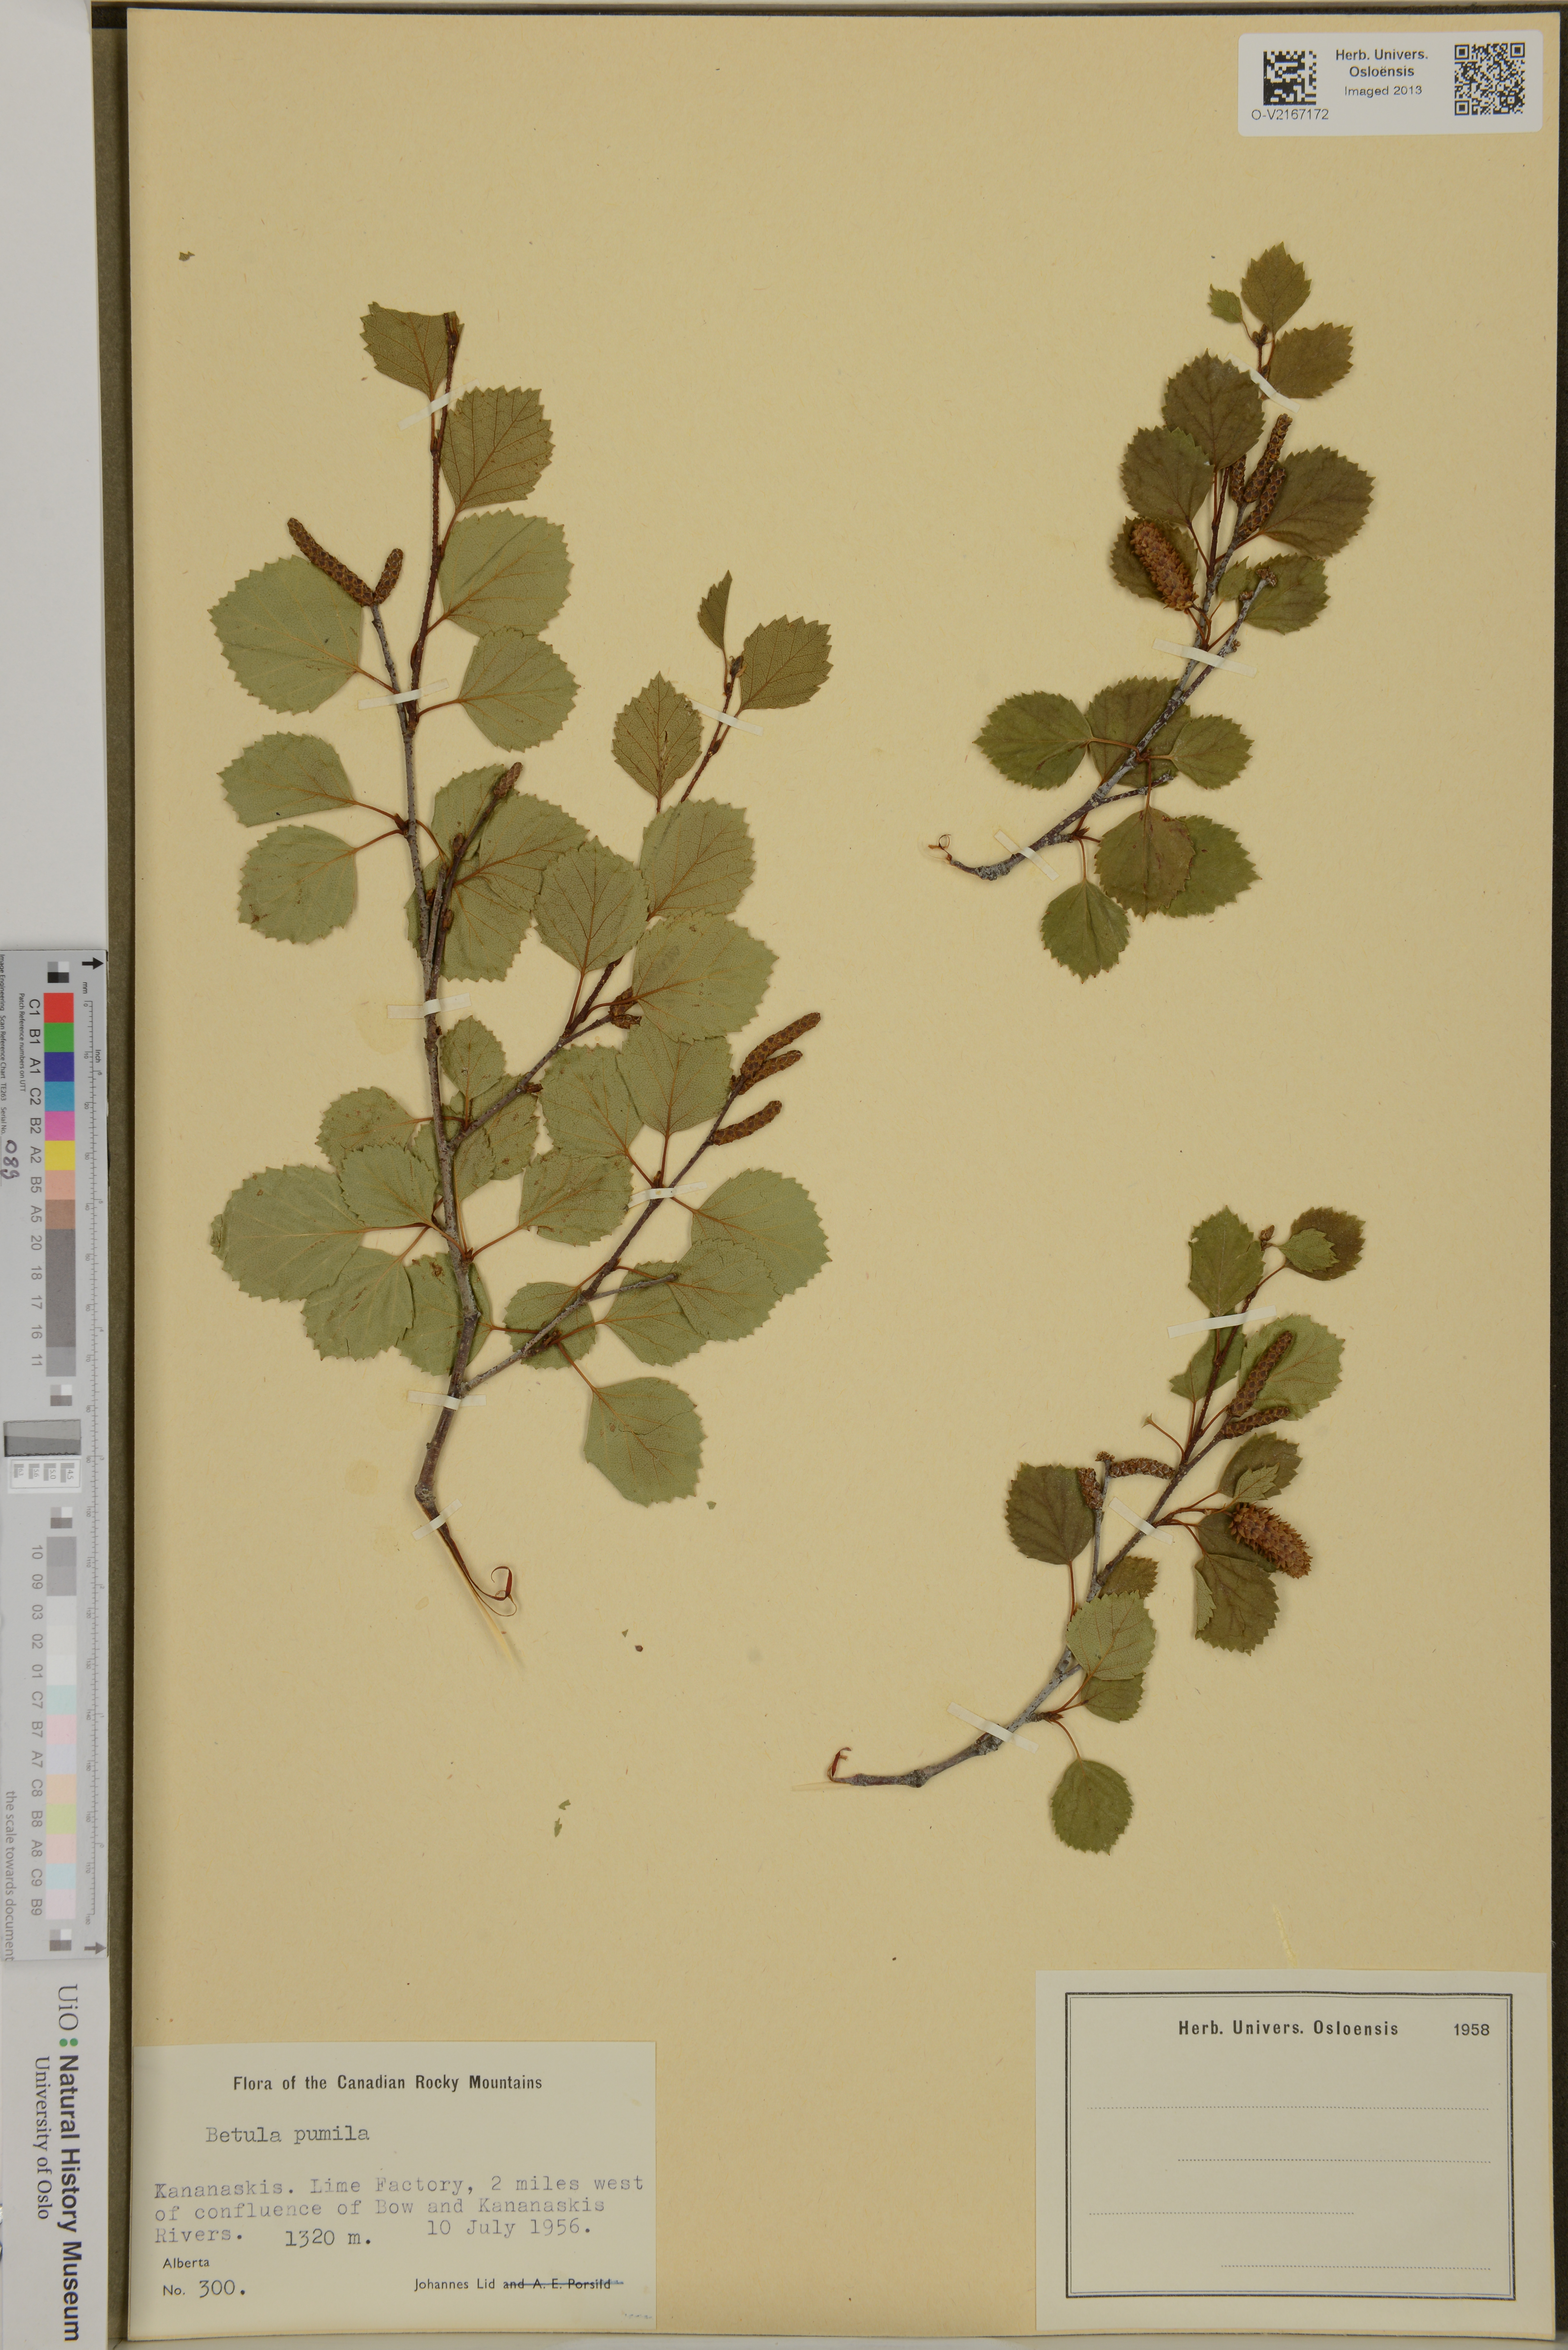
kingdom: Plantae
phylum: Tracheophyta
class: Magnoliopsida
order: Fagales
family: Betulaceae
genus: Betula
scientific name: Betula pumila
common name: Bog birch
